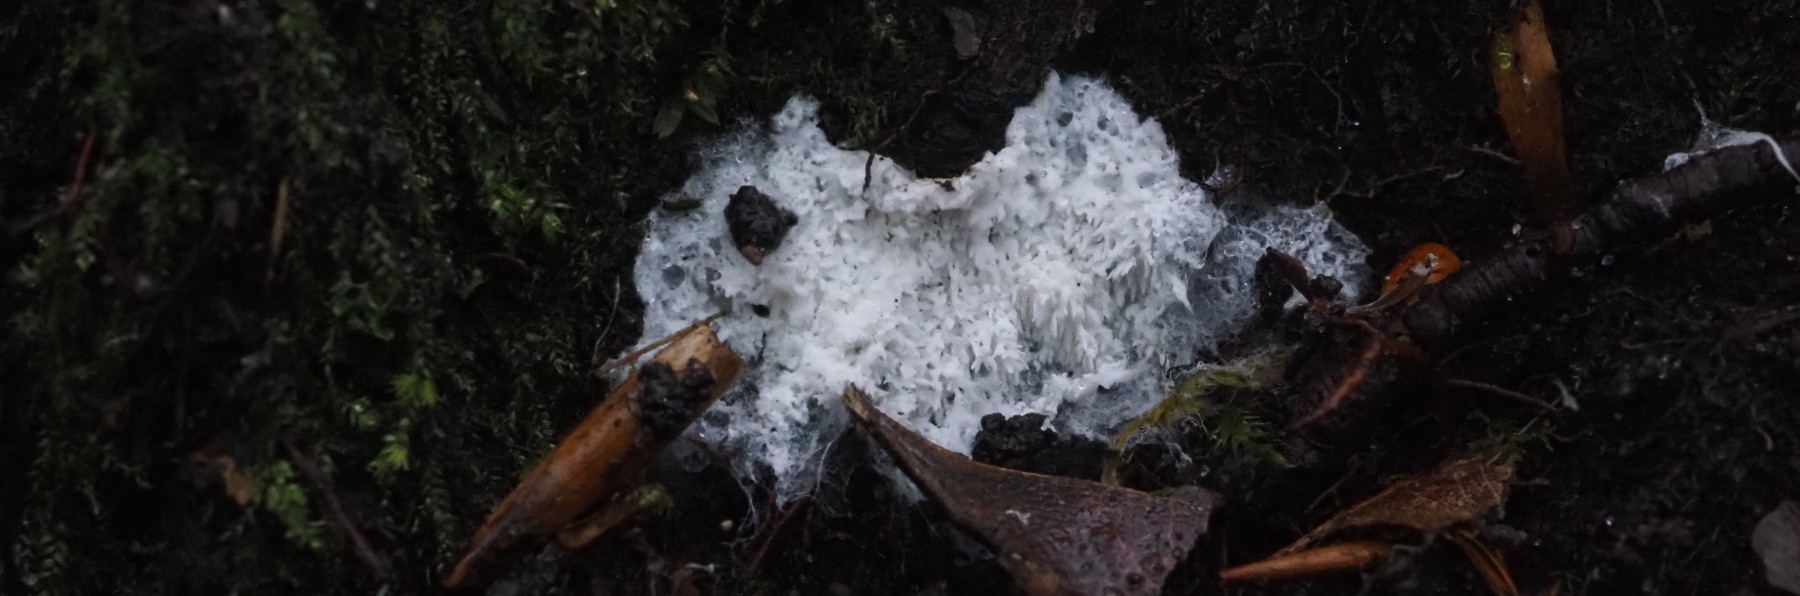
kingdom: Fungi
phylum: Basidiomycota
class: Agaricomycetes
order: Cantharellales
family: Hydnaceae
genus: Sistotrema
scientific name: Sistotrema
